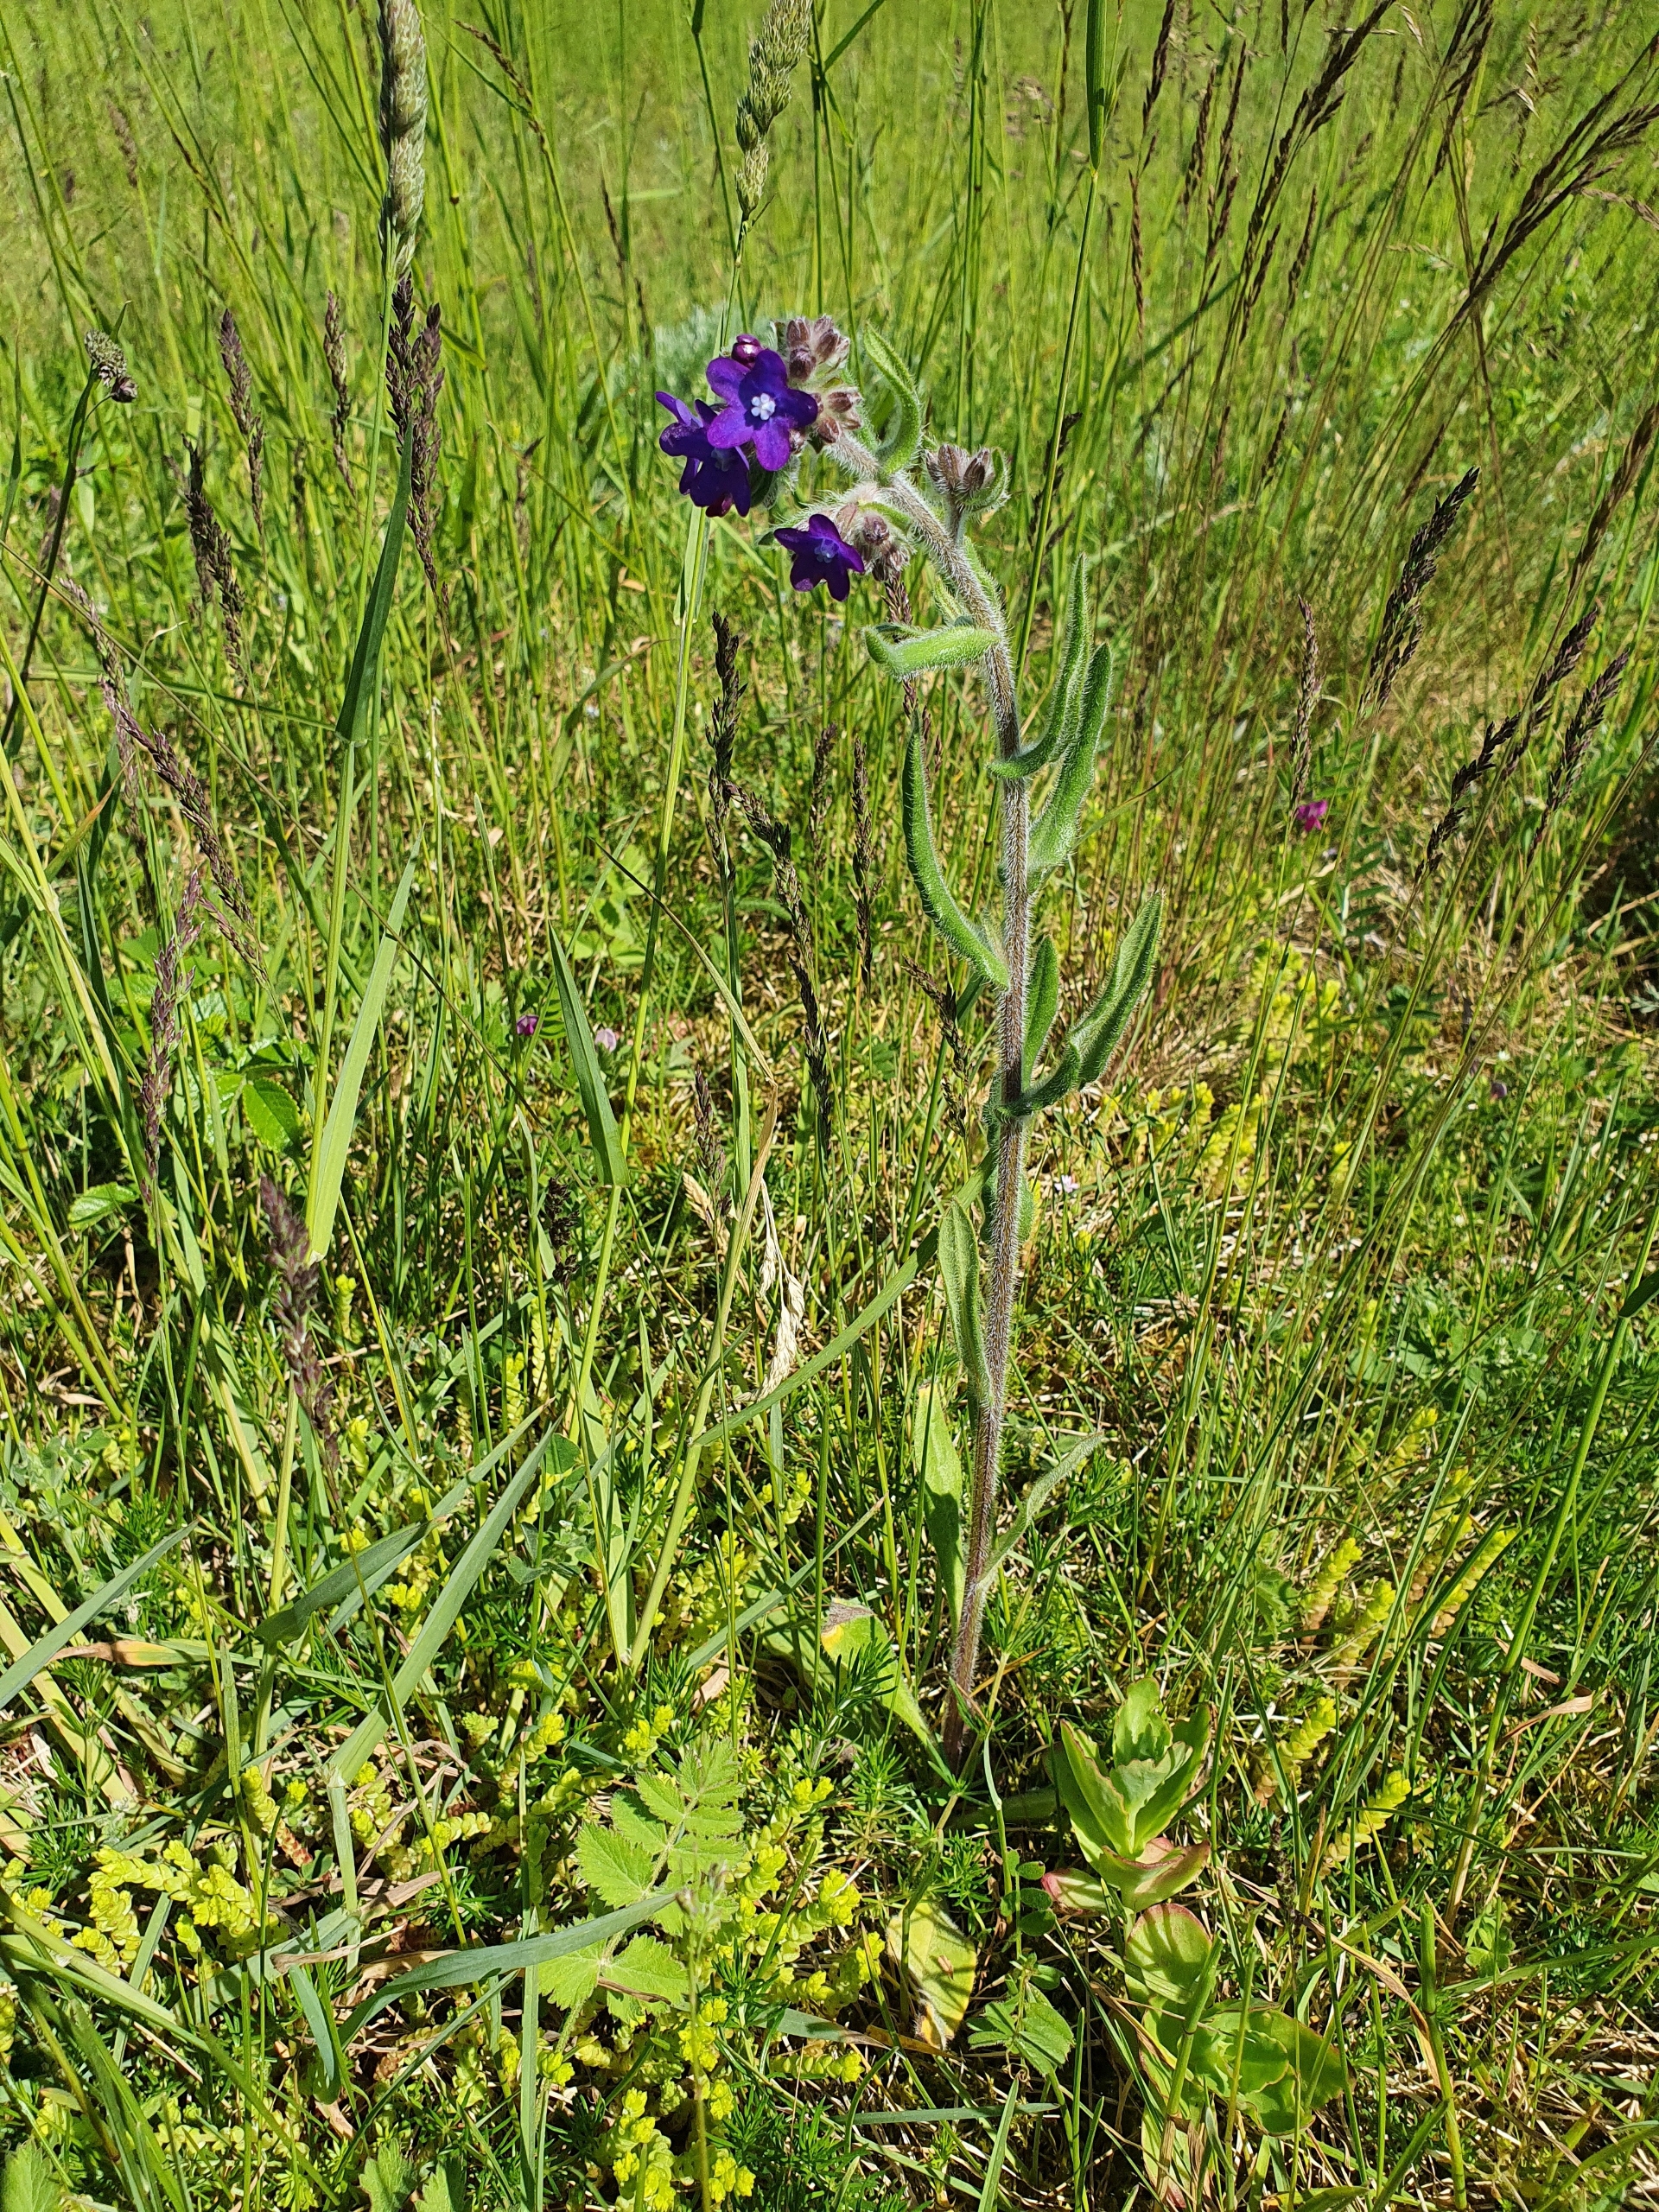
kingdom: Plantae
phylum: Tracheophyta
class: Magnoliopsida
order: Boraginales
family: Boraginaceae
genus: Anchusa
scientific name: Anchusa officinalis
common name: Læge-oksetunge
